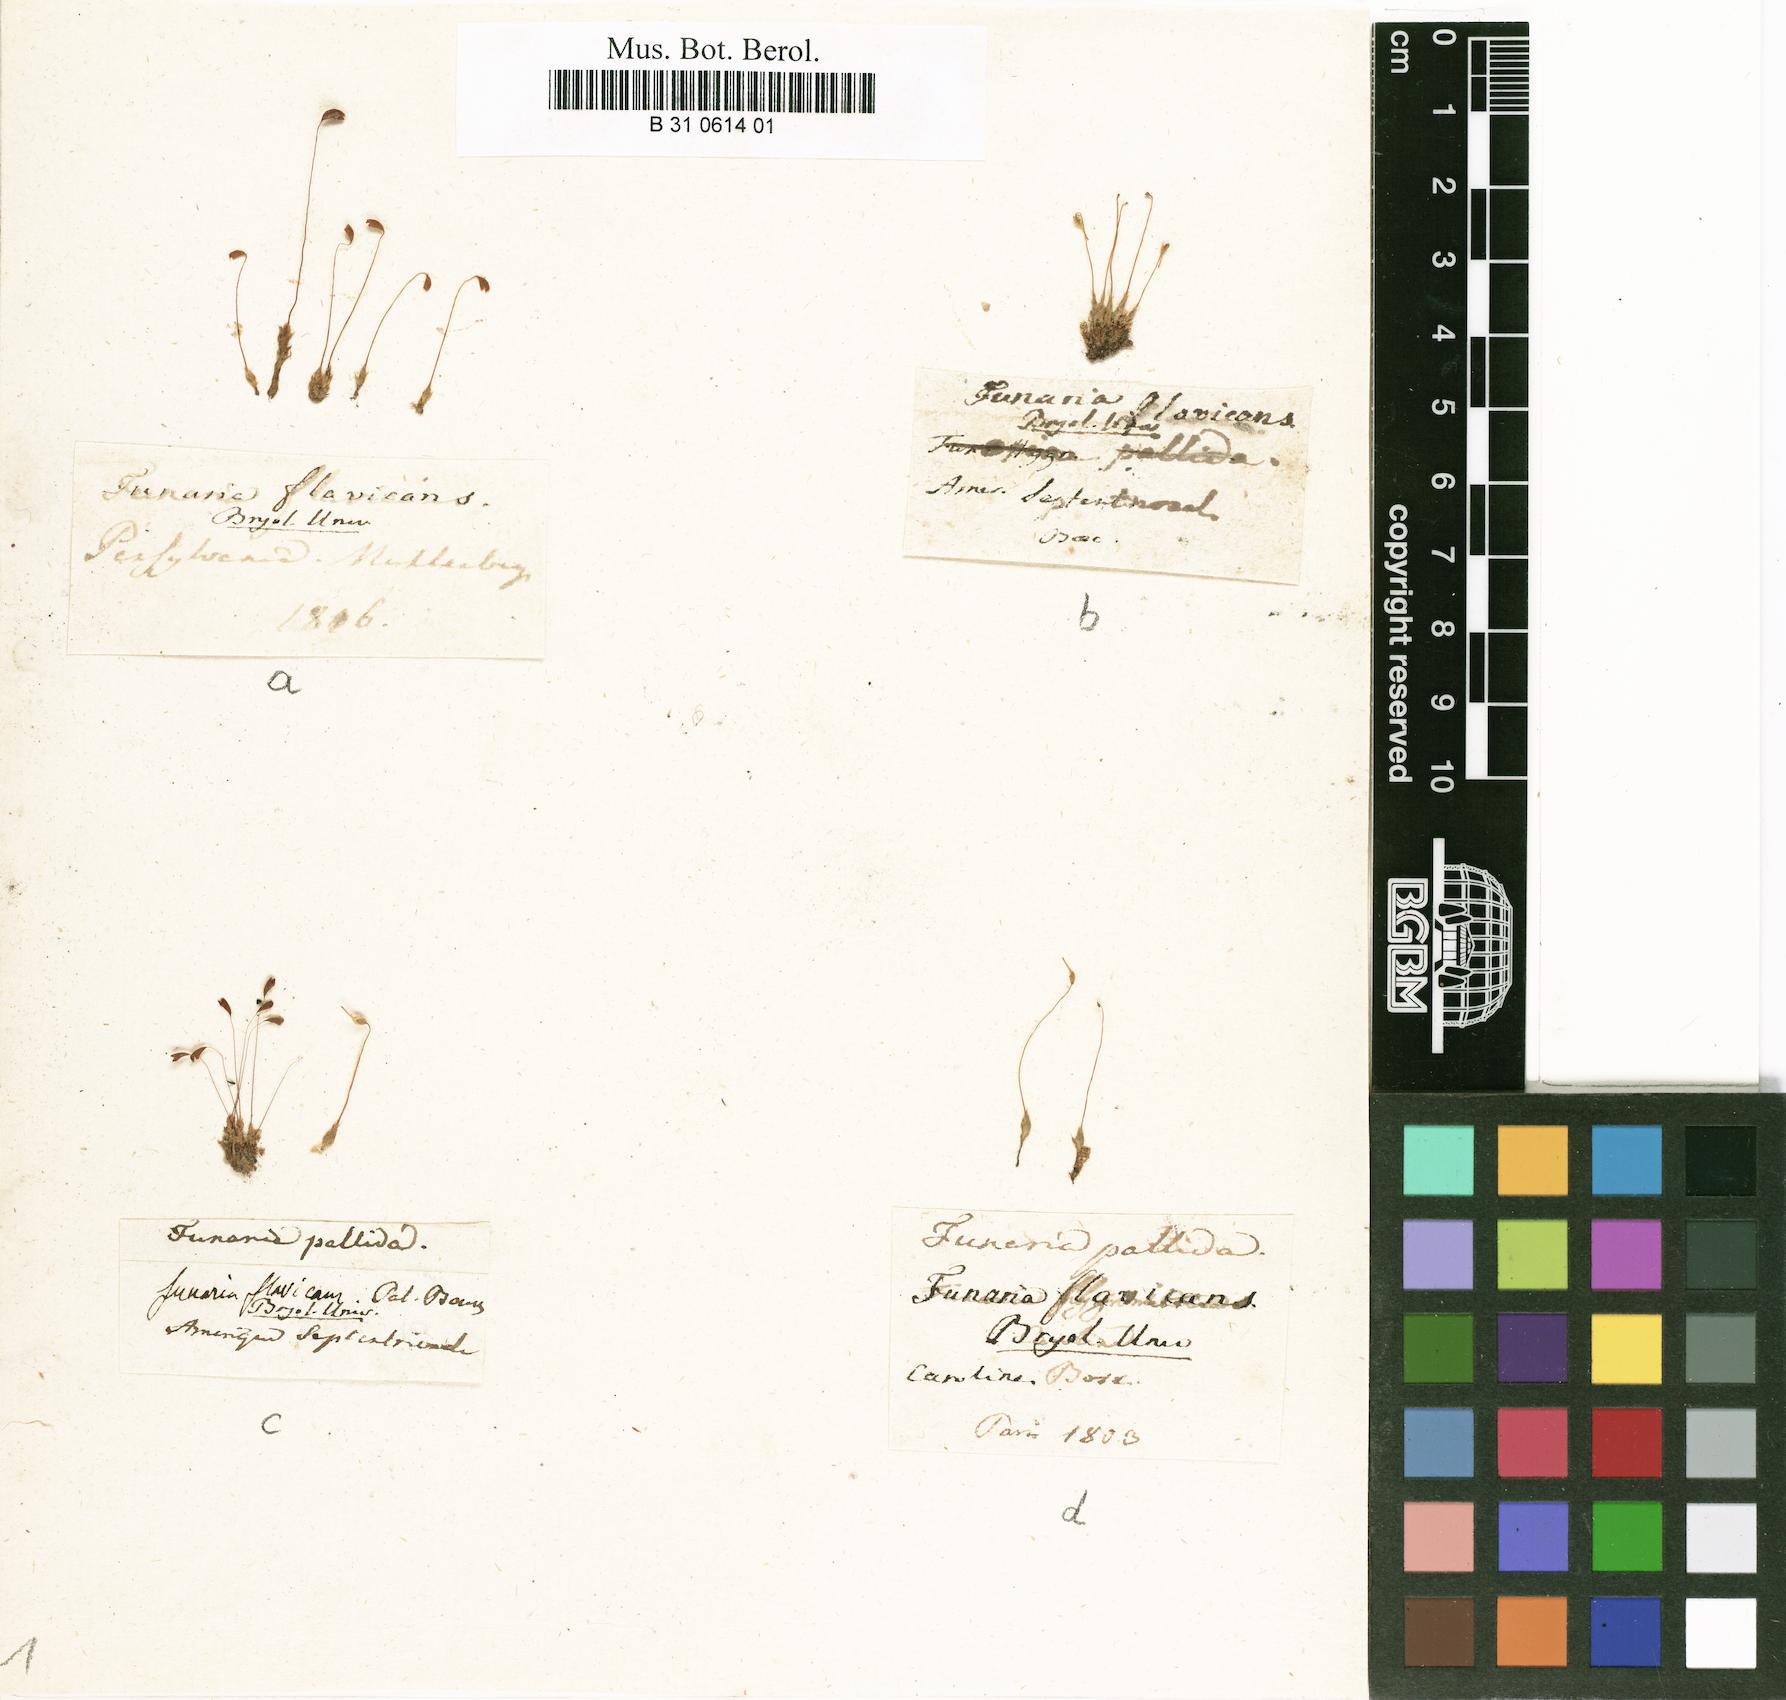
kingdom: Plantae
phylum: Bryophyta
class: Bryopsida
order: Funariales
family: Funariaceae
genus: Funaria
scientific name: Funaria flavicans
